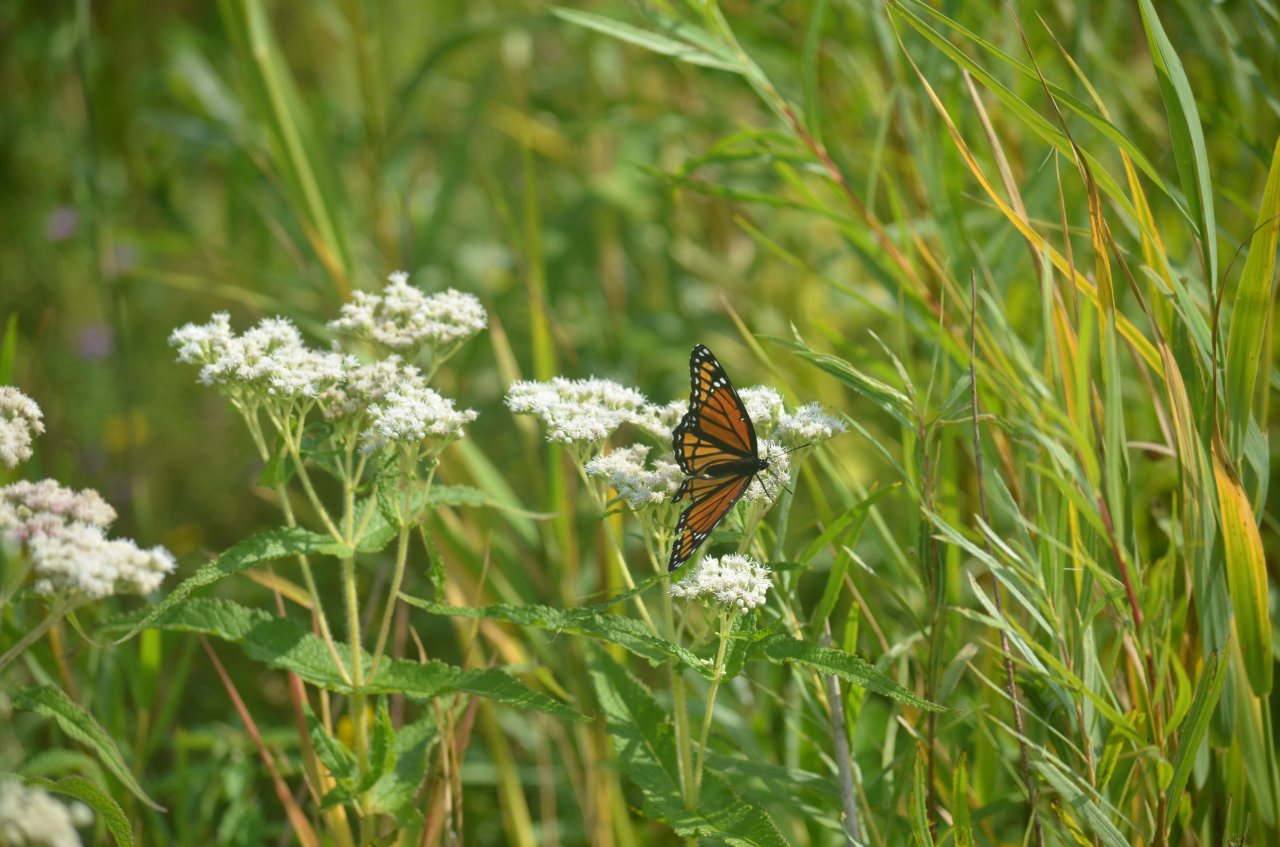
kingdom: Animalia
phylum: Arthropoda
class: Insecta
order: Lepidoptera
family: Nymphalidae
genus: Limenitis
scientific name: Limenitis archippus
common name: Viceroy
